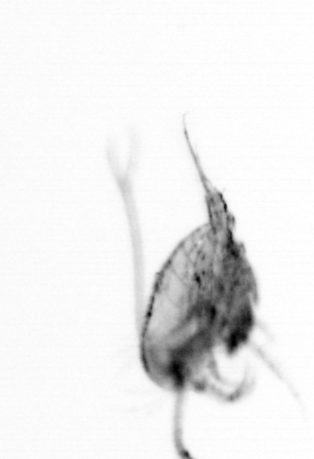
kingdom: Animalia
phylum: Arthropoda
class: Copepoda
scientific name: Copepoda
